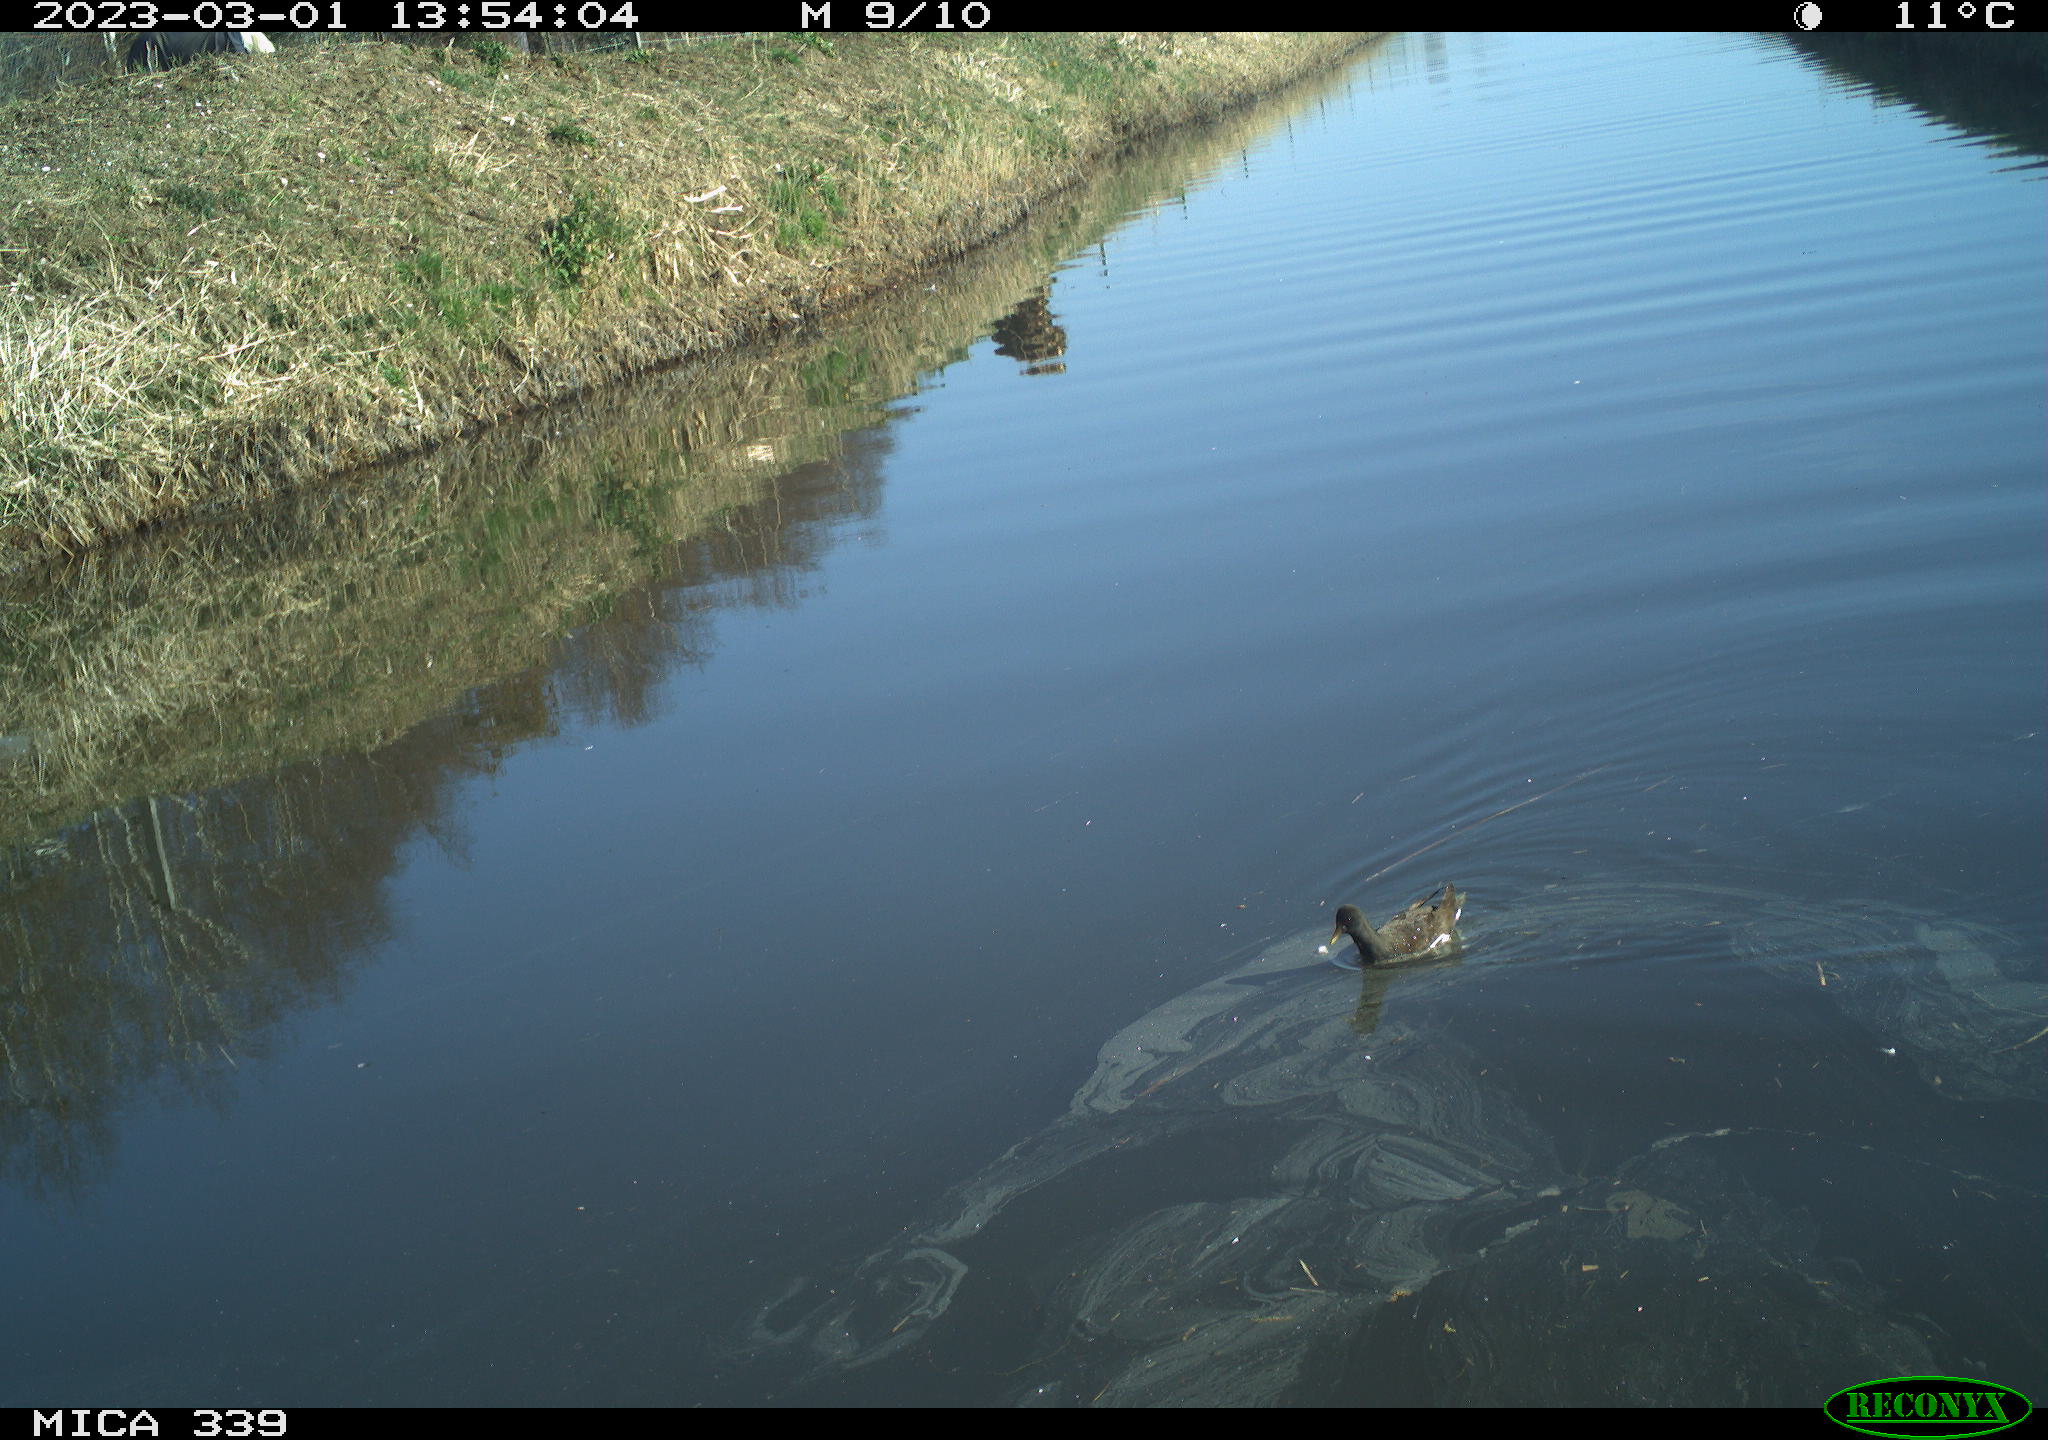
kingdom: Animalia
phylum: Chordata
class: Aves
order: Gruiformes
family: Rallidae
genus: Gallinula
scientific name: Gallinula chloropus
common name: Common moorhen
